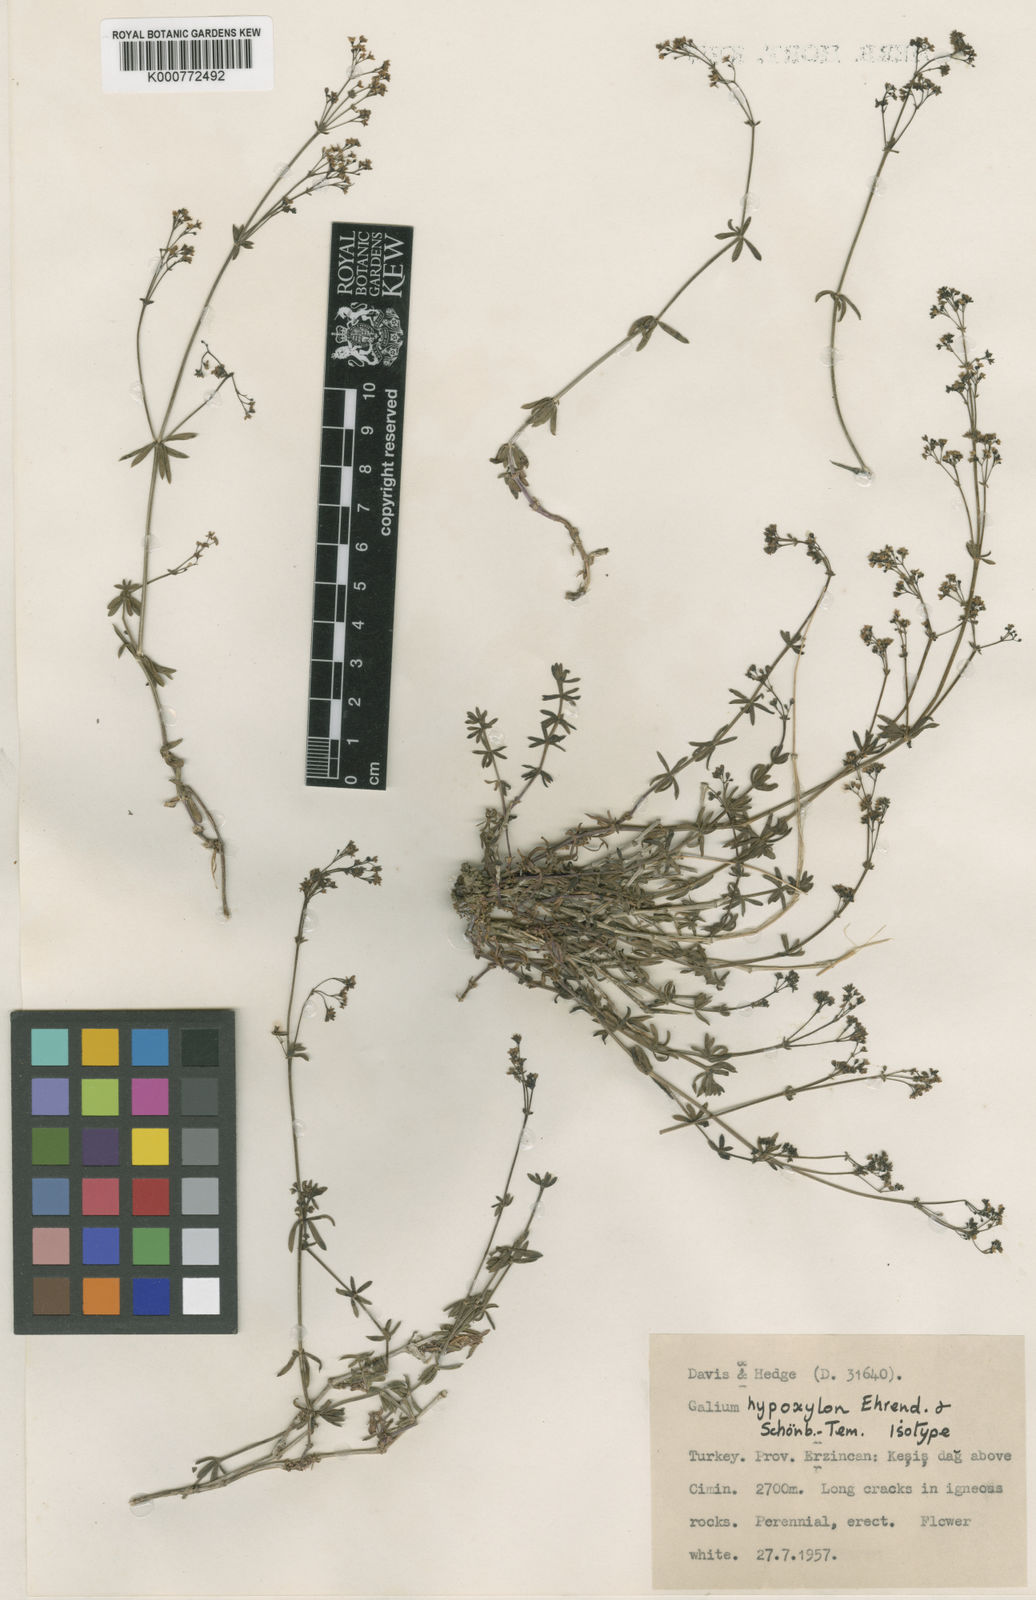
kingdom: Plantae
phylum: Tracheophyta
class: Magnoliopsida
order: Gentianales
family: Rubiaceae
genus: Galium
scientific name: Galium
